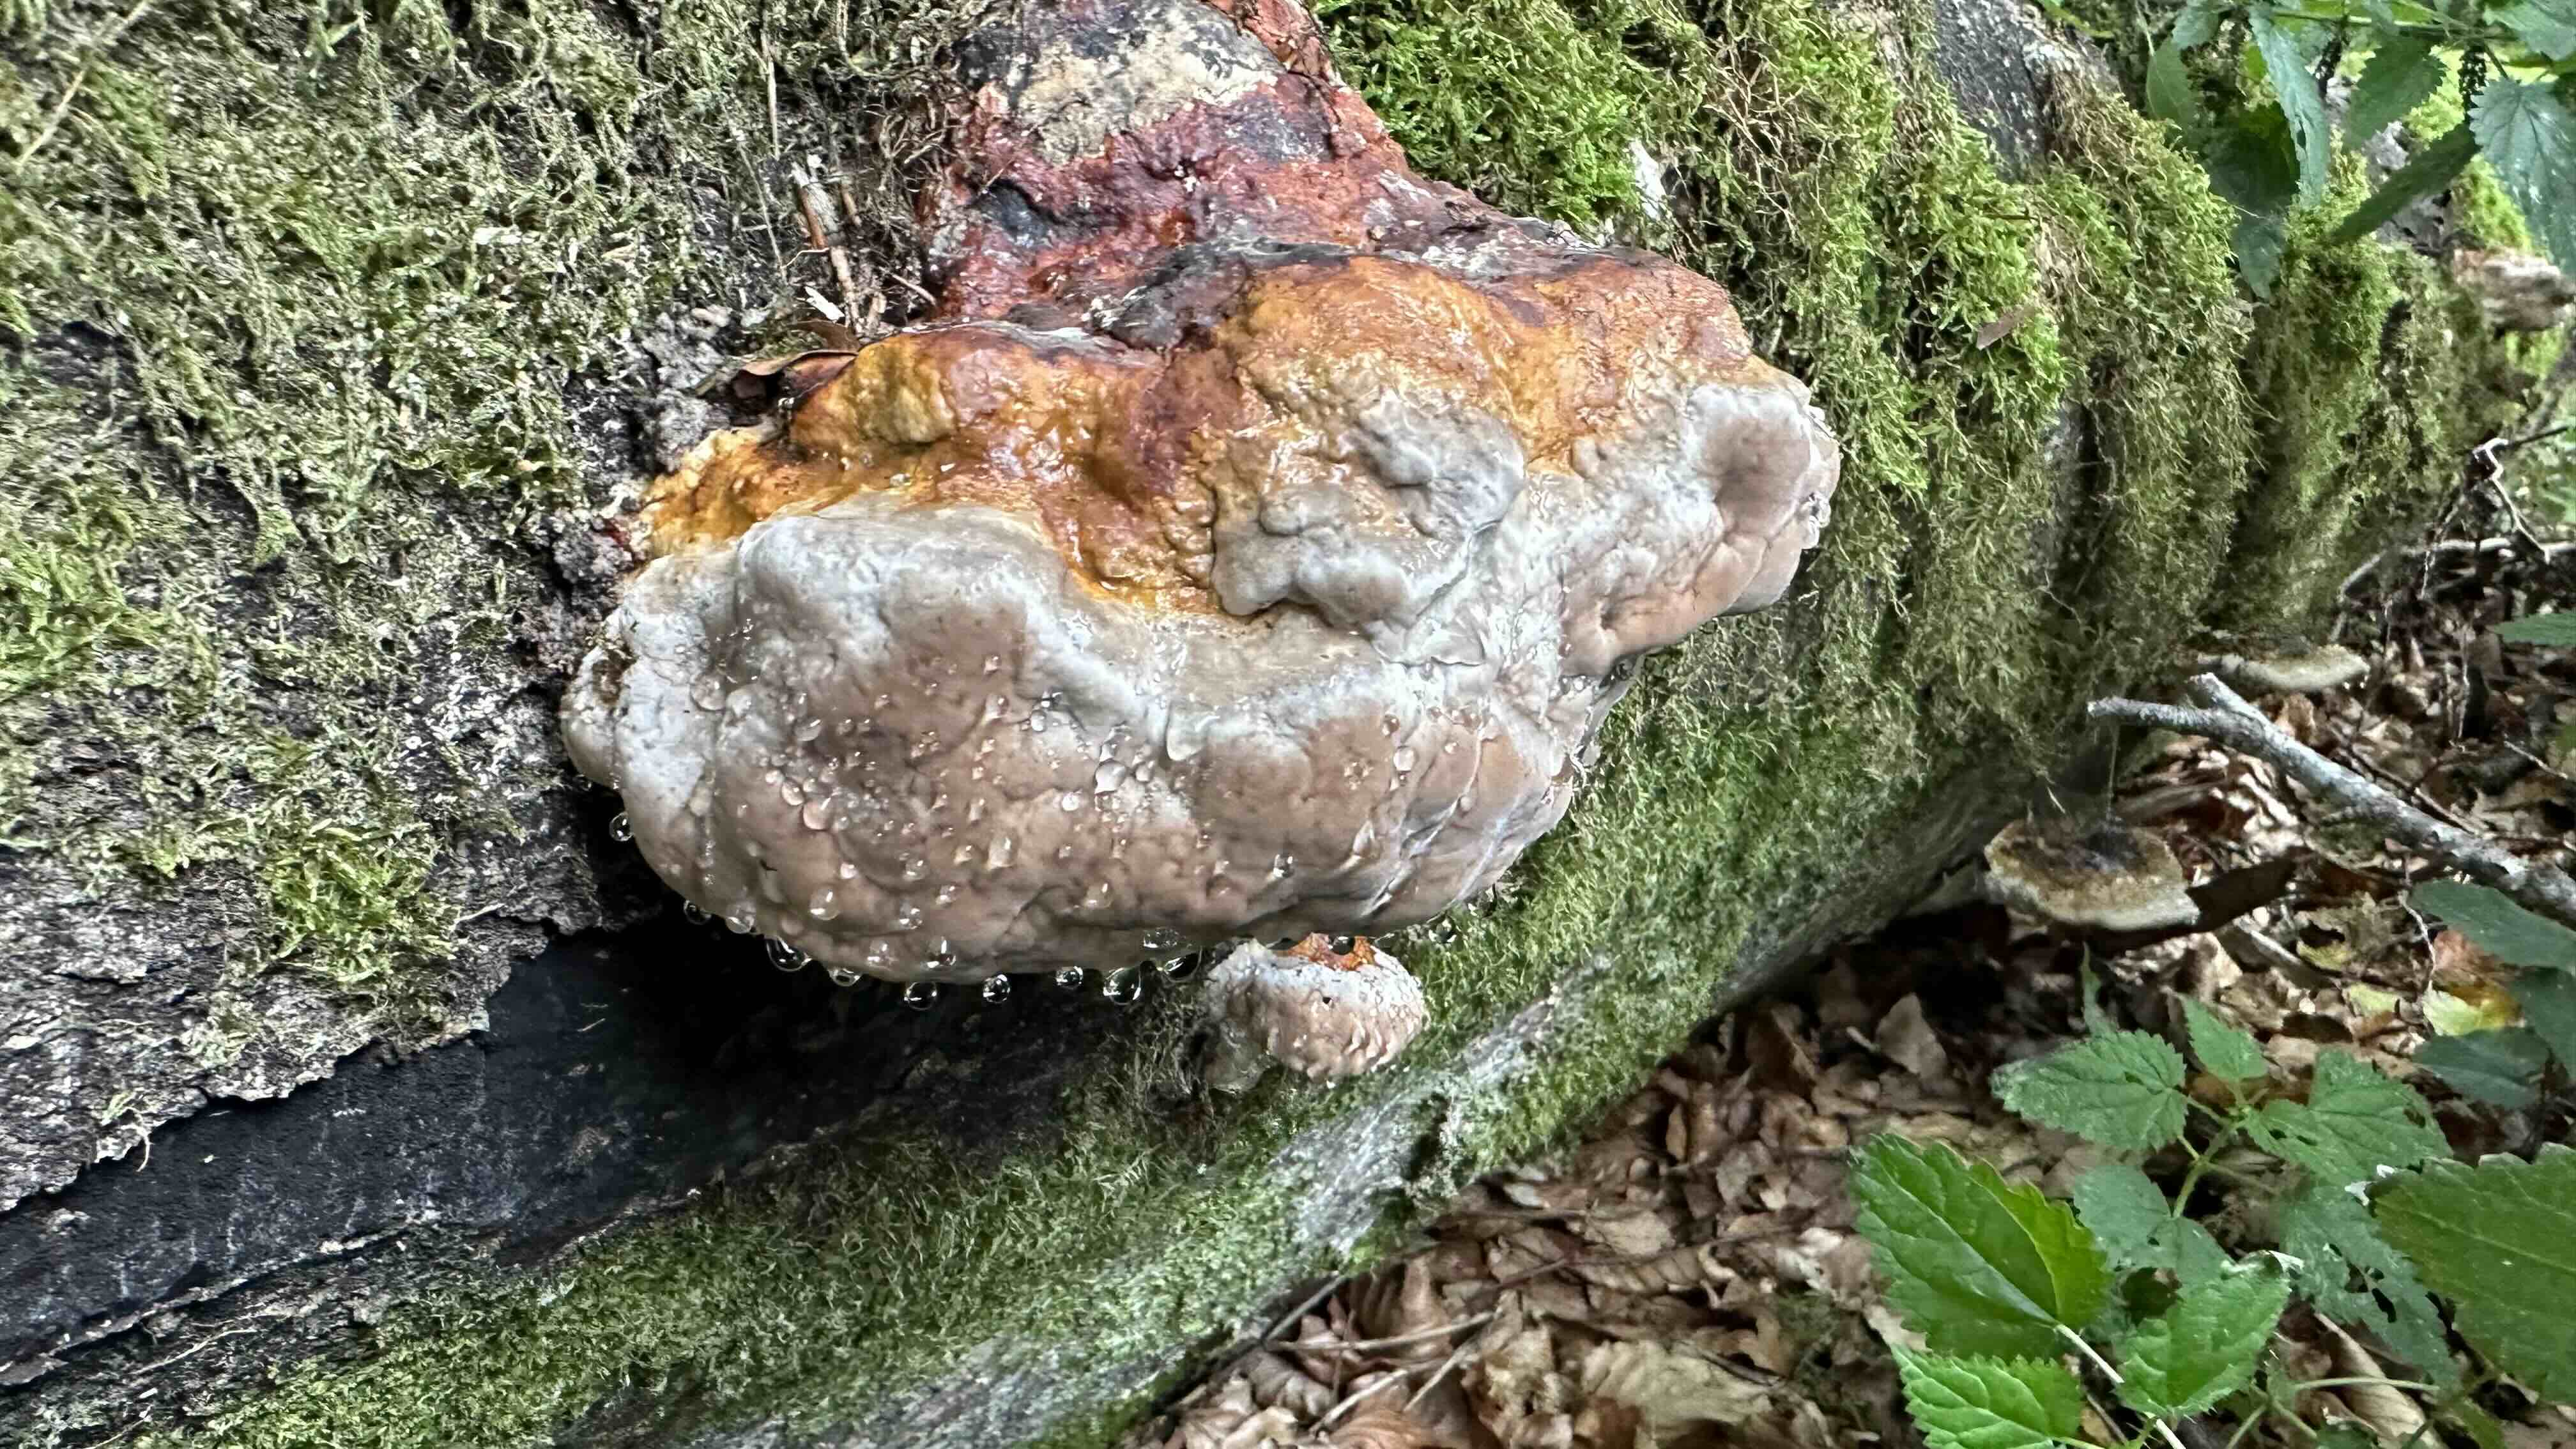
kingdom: Fungi
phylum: Basidiomycota
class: Agaricomycetes
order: Polyporales
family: Fomitopsidaceae
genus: Fomitopsis
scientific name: Fomitopsis pinicola
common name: randbæltet hovporesvamp
